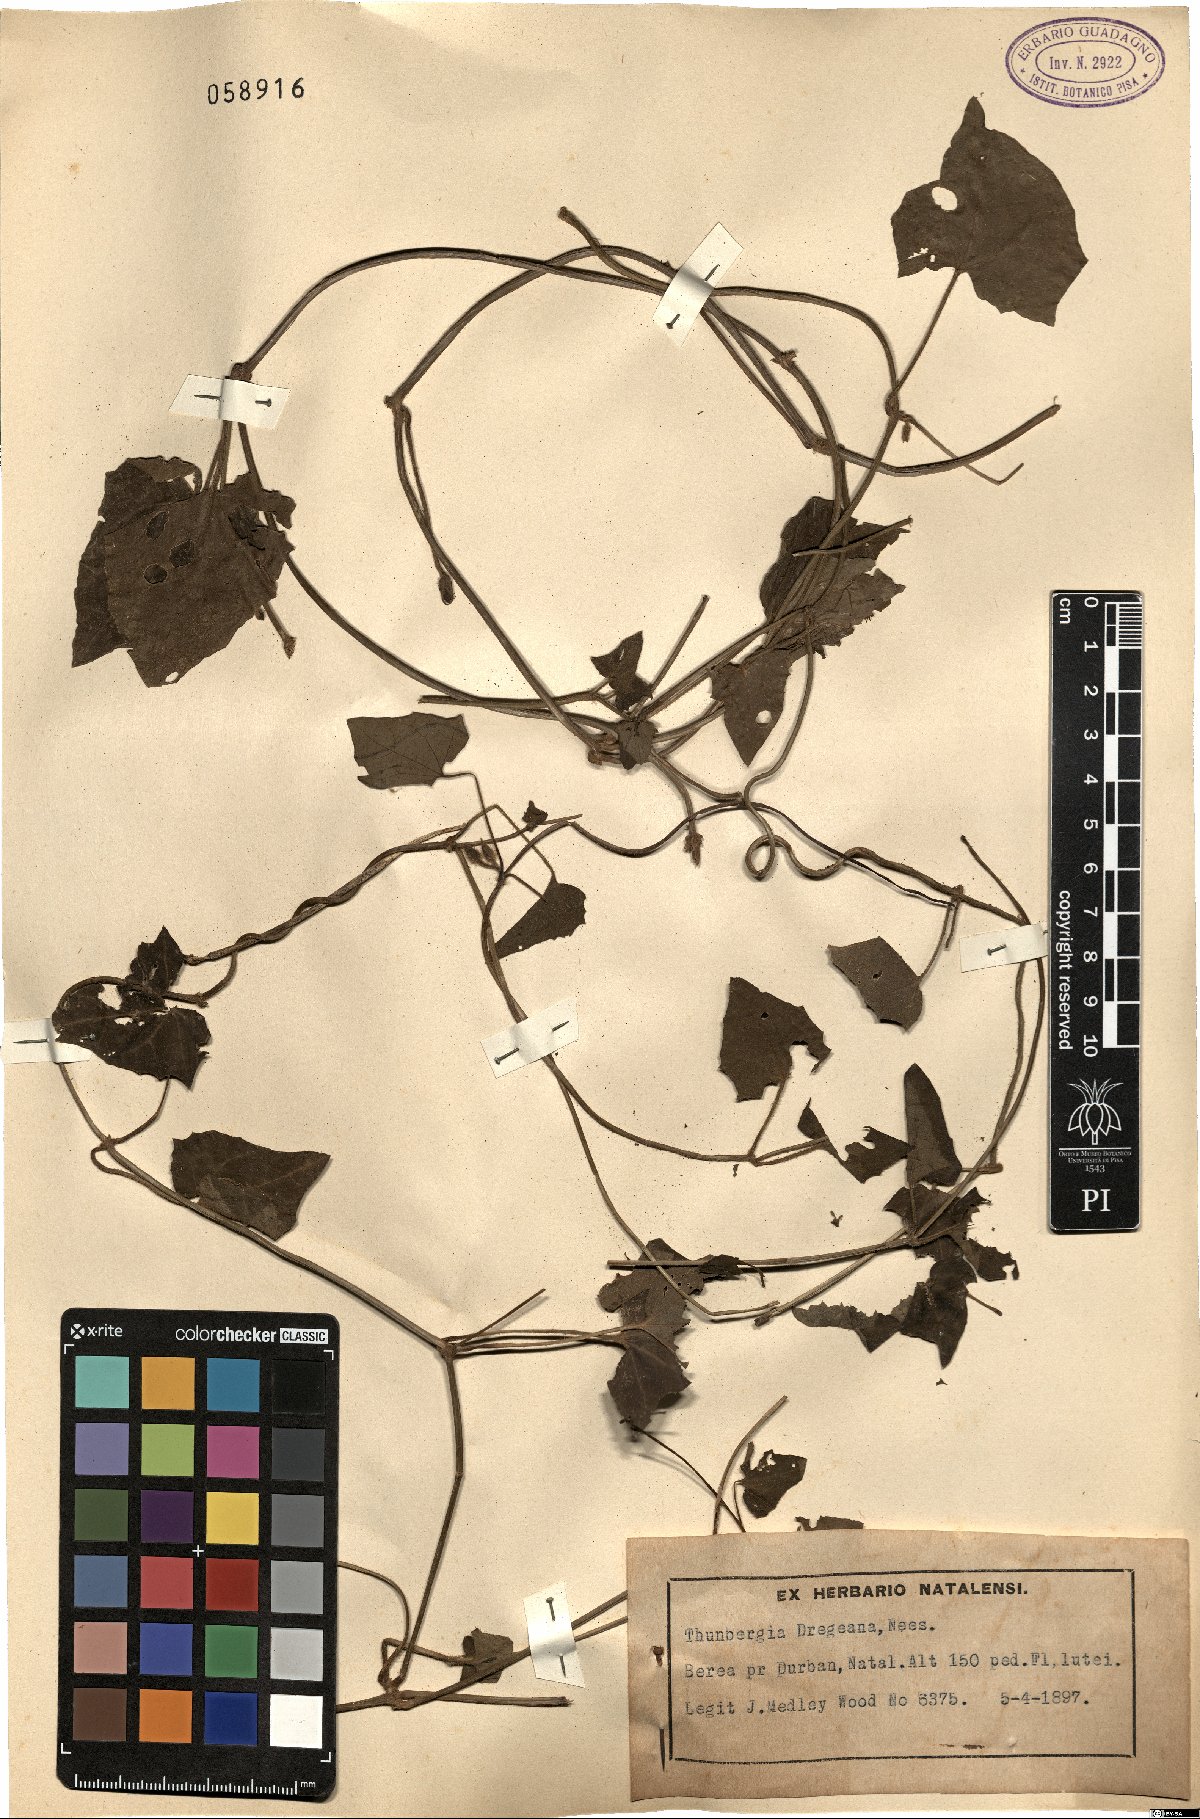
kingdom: Plantae
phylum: Tracheophyta
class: Magnoliopsida
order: Lamiales
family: Acanthaceae
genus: Thunbergia
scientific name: Thunbergia dregeana
